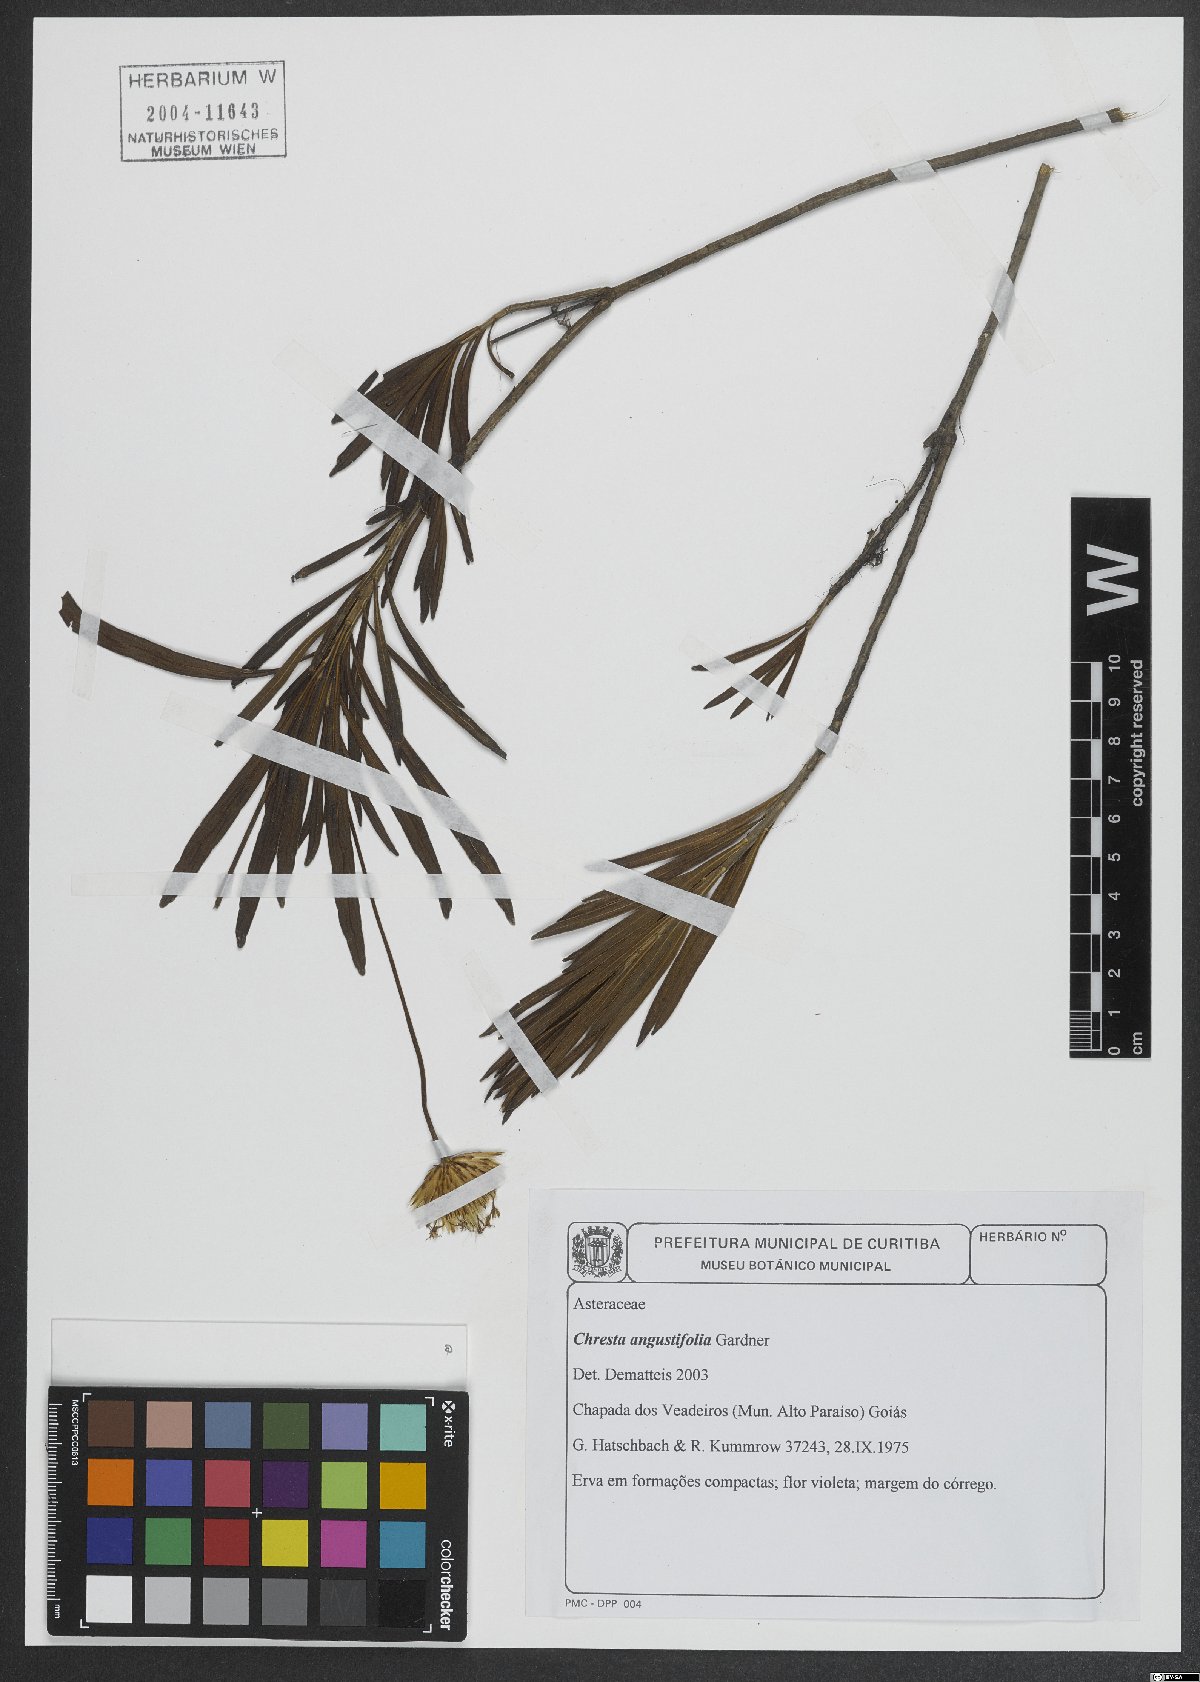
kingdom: Plantae
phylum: Tracheophyta
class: Magnoliopsida
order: Asterales
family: Asteraceae
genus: Chresta
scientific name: Chresta angustifolia
